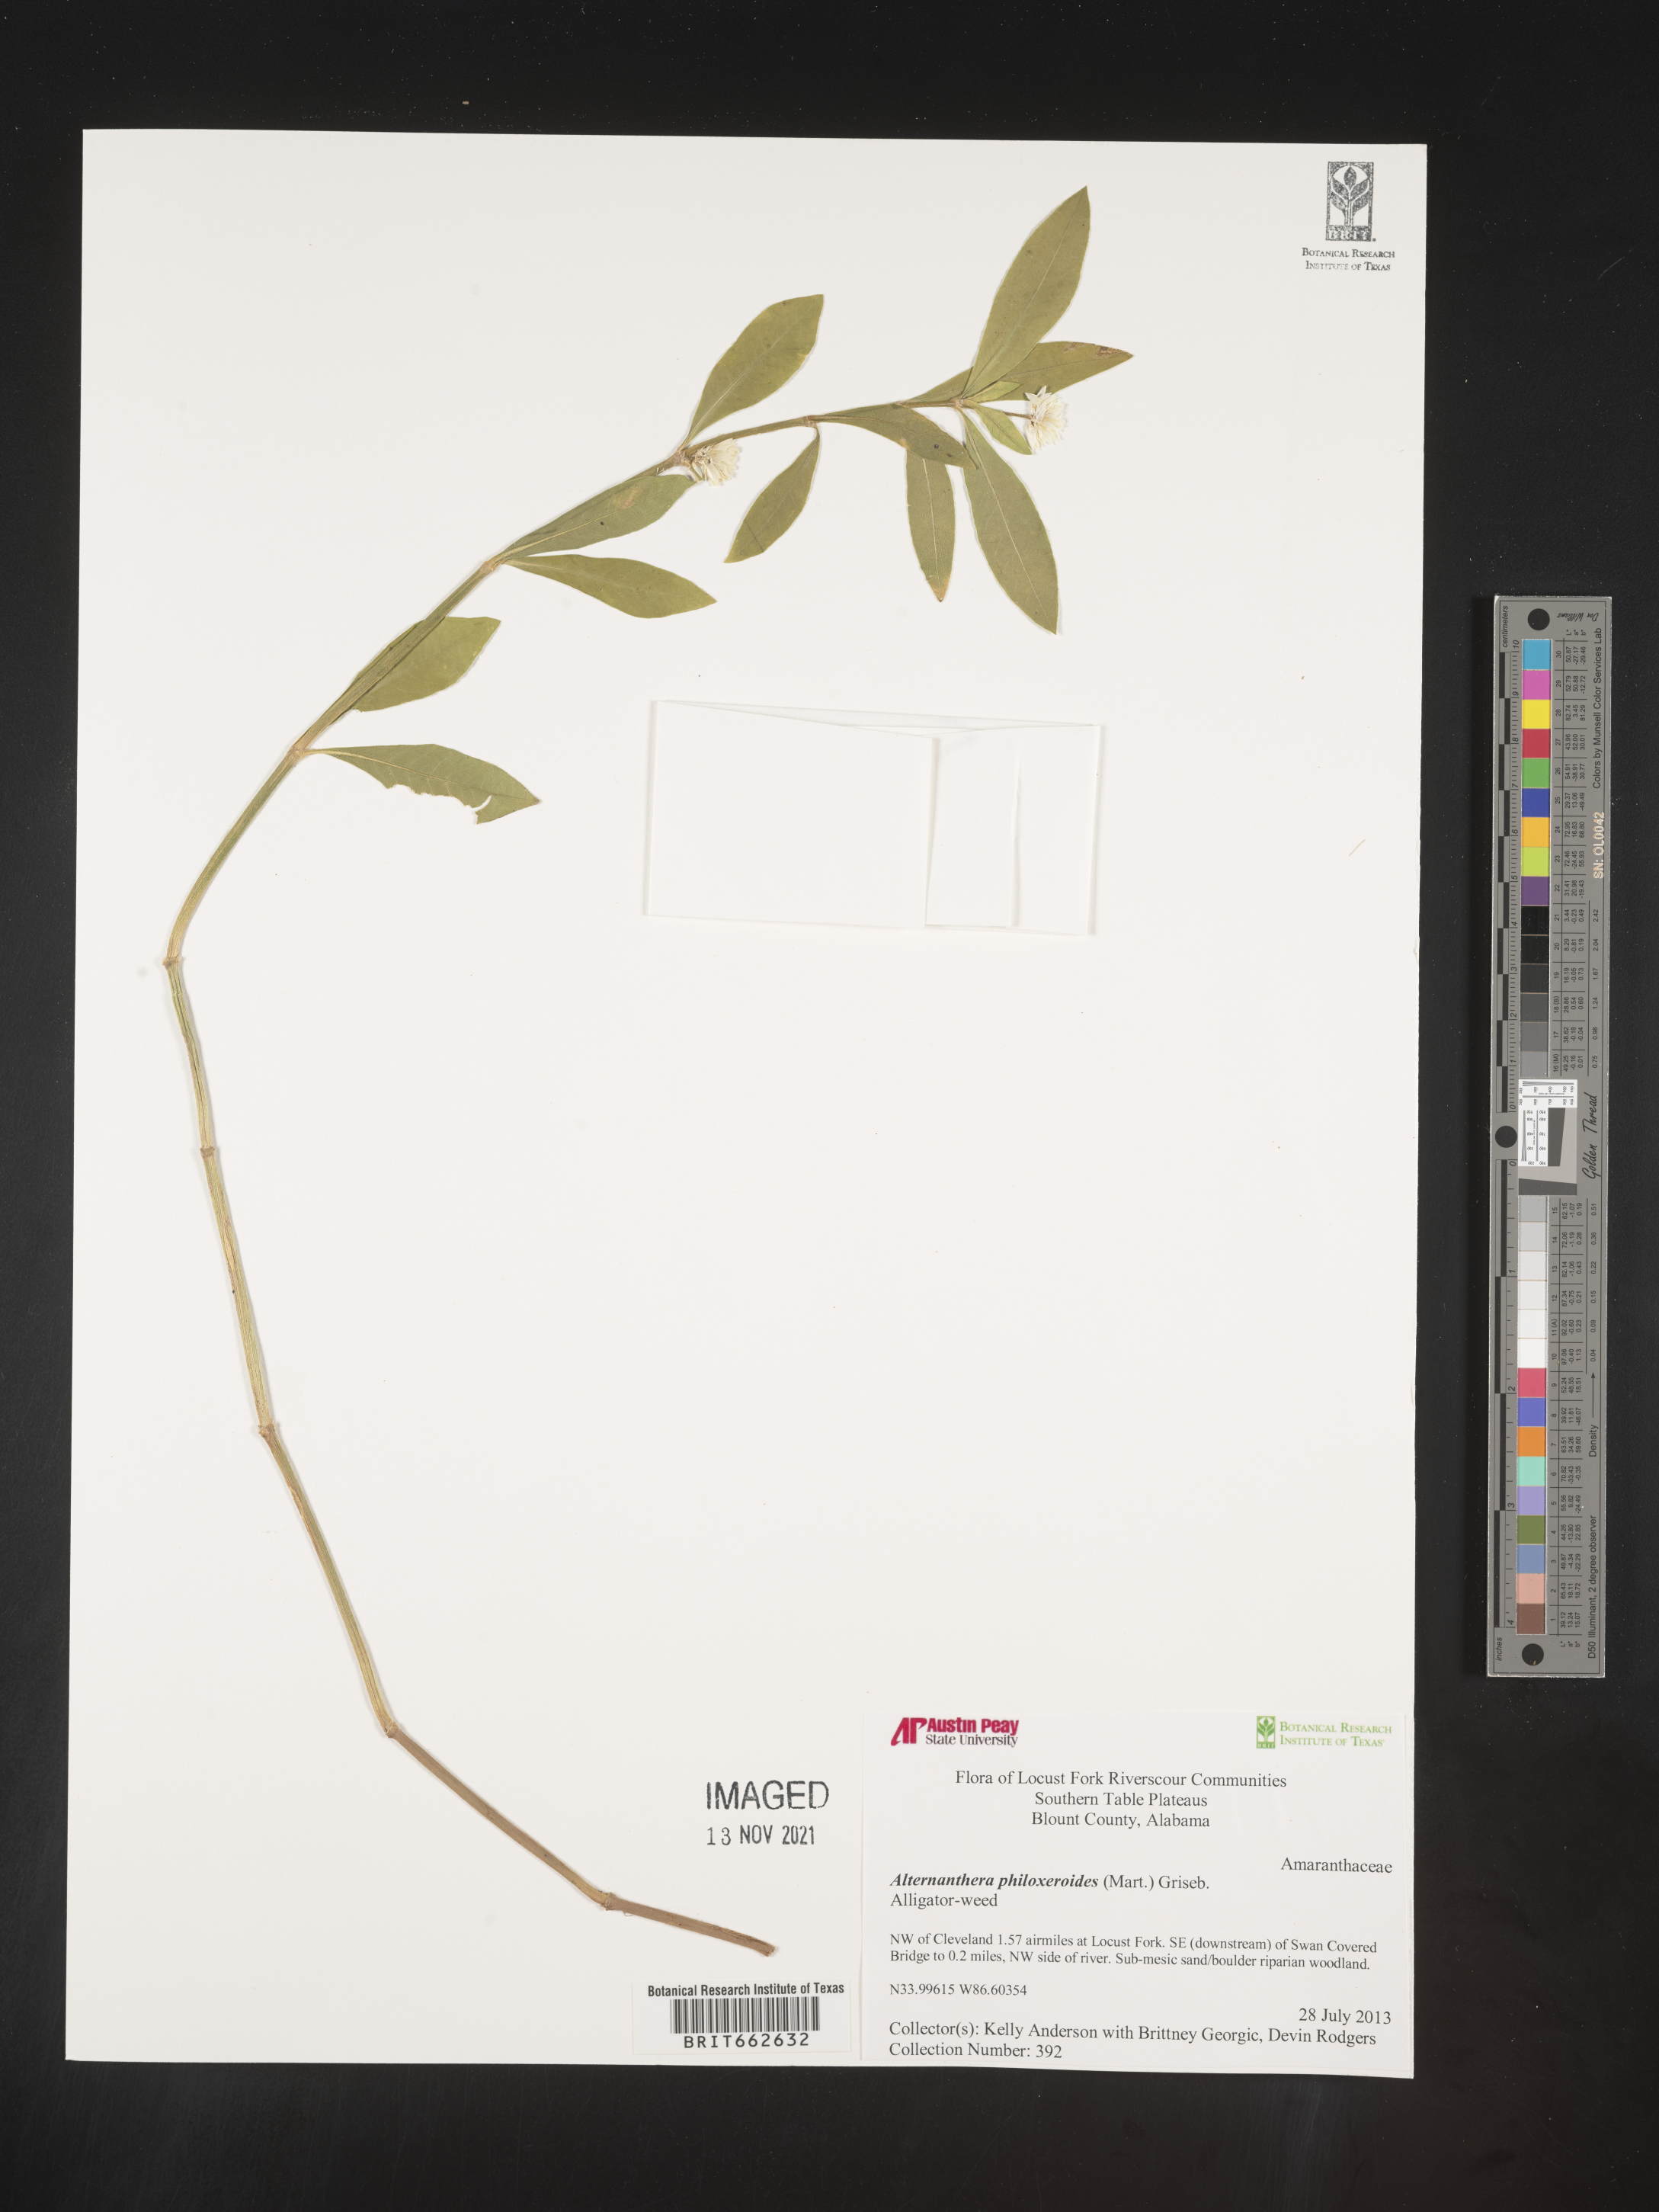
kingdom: Plantae
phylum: Tracheophyta
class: Magnoliopsida
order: Caryophyllales
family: Amaranthaceae
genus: Alternanthera
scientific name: Alternanthera philoxeroides
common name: Alligatorweed
